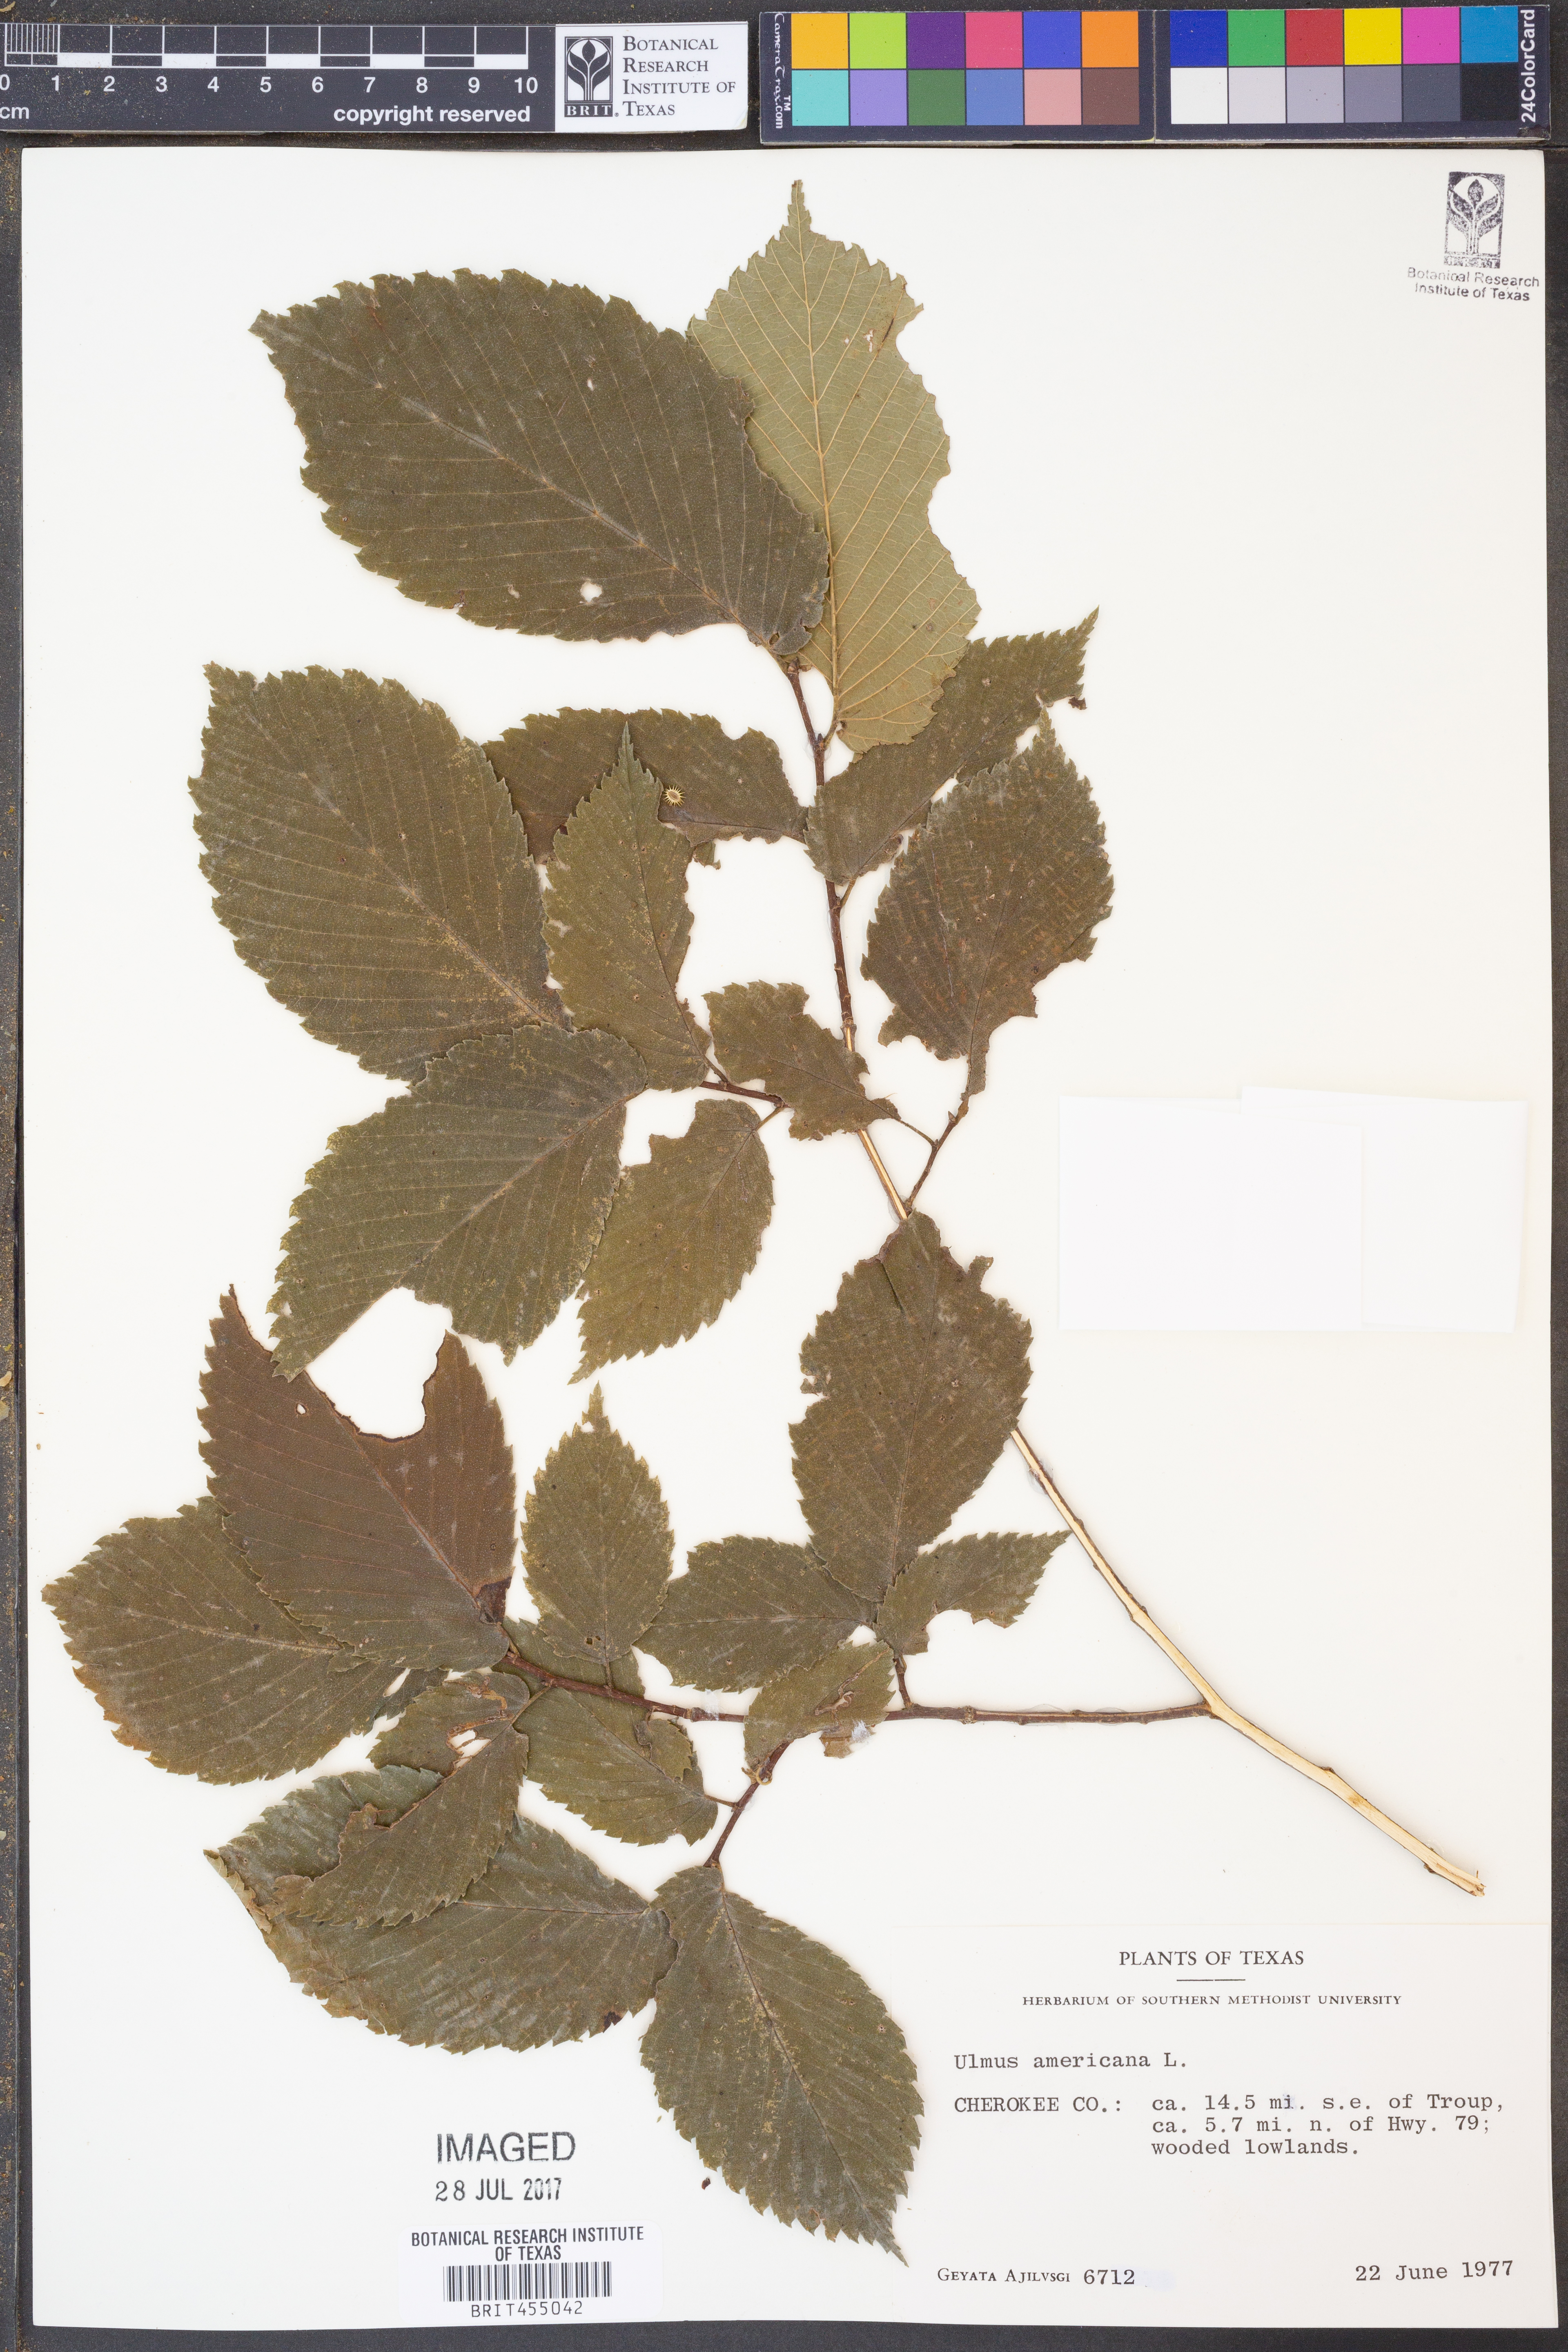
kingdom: Plantae
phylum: Tracheophyta
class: Magnoliopsida
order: Rosales
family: Ulmaceae
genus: Ulmus
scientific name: Ulmus americana
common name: American elm
